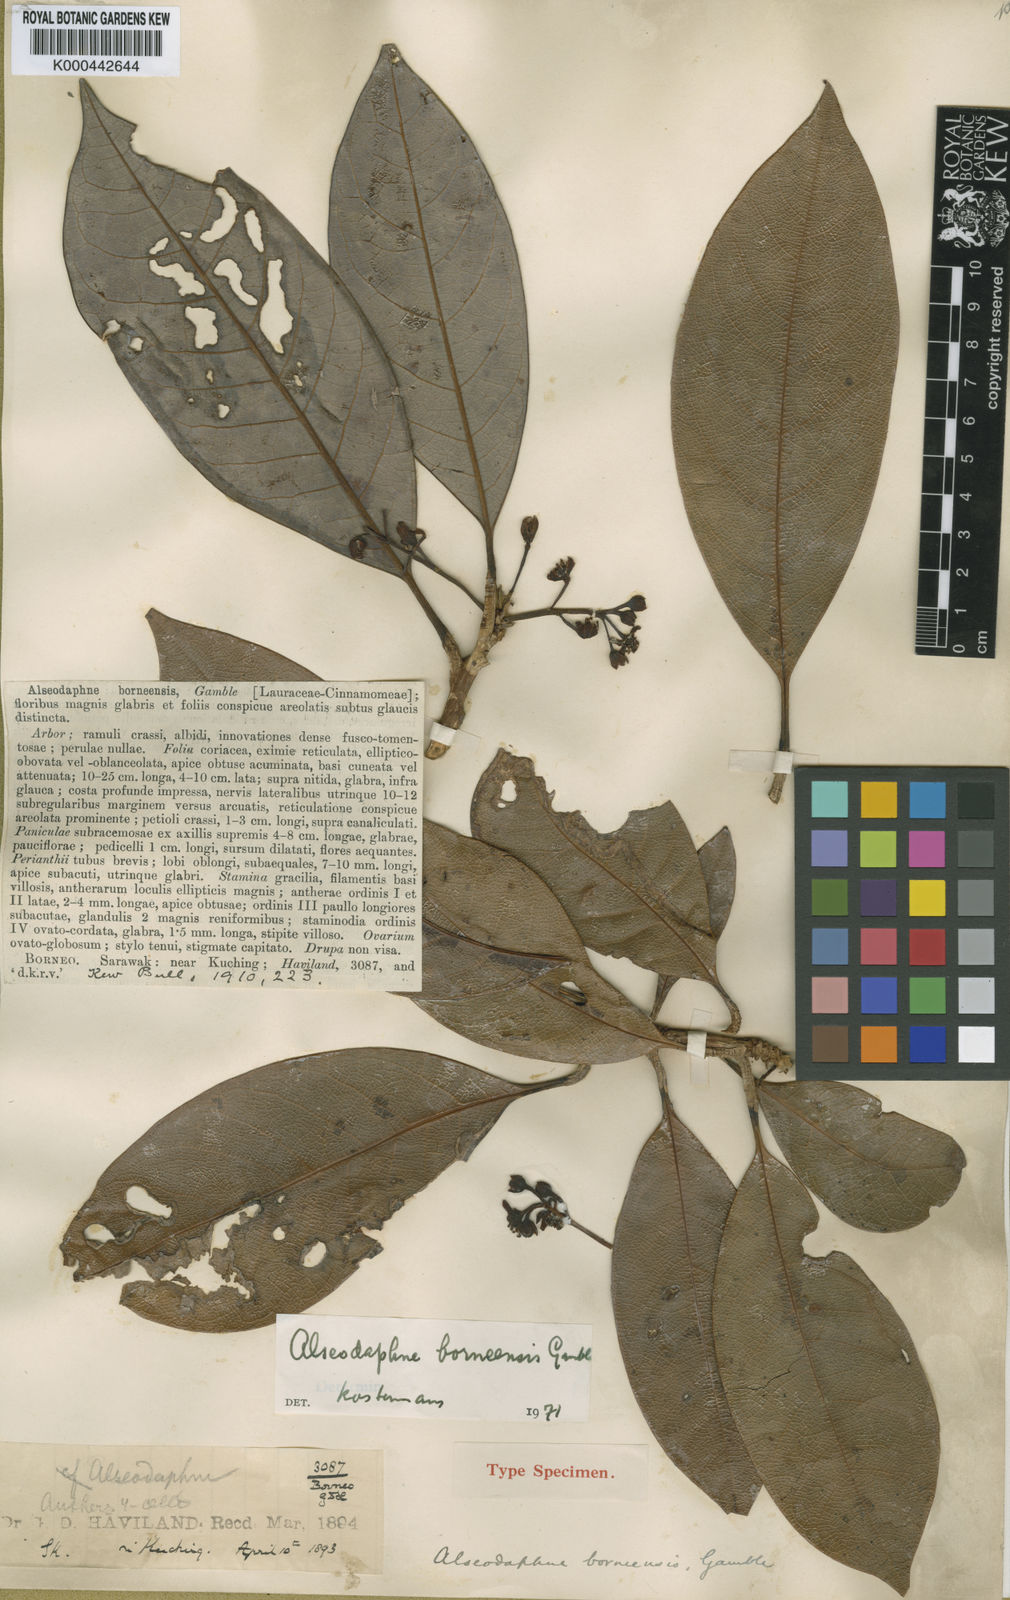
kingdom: Plantae
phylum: Tracheophyta
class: Magnoliopsida
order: Laurales
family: Lauraceae
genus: Alseodaphne
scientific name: Alseodaphne borneensis
